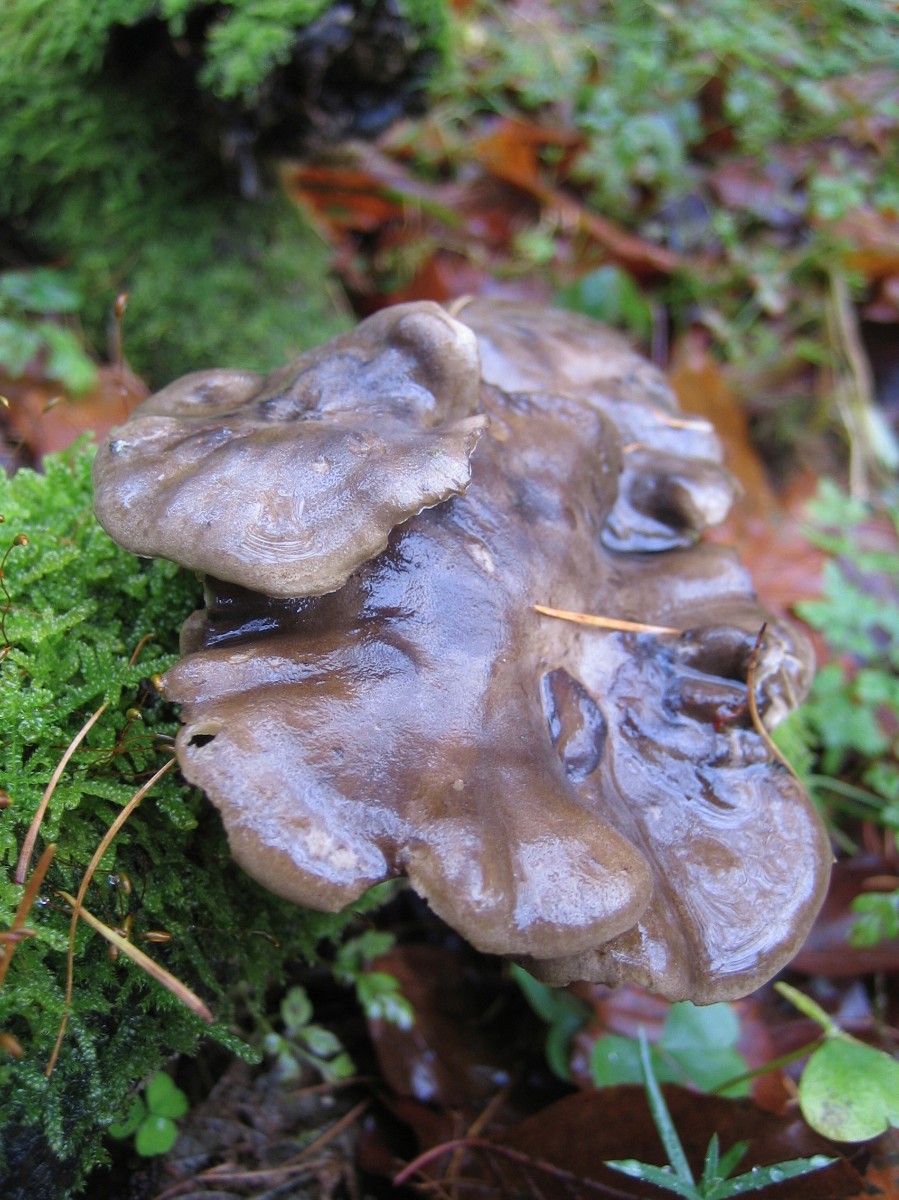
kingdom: Fungi
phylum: Basidiomycota
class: Agaricomycetes
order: Polyporales
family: Polyporaceae
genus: Lentinus
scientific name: Lentinus brumalis
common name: vinter-stilkporesvamp
